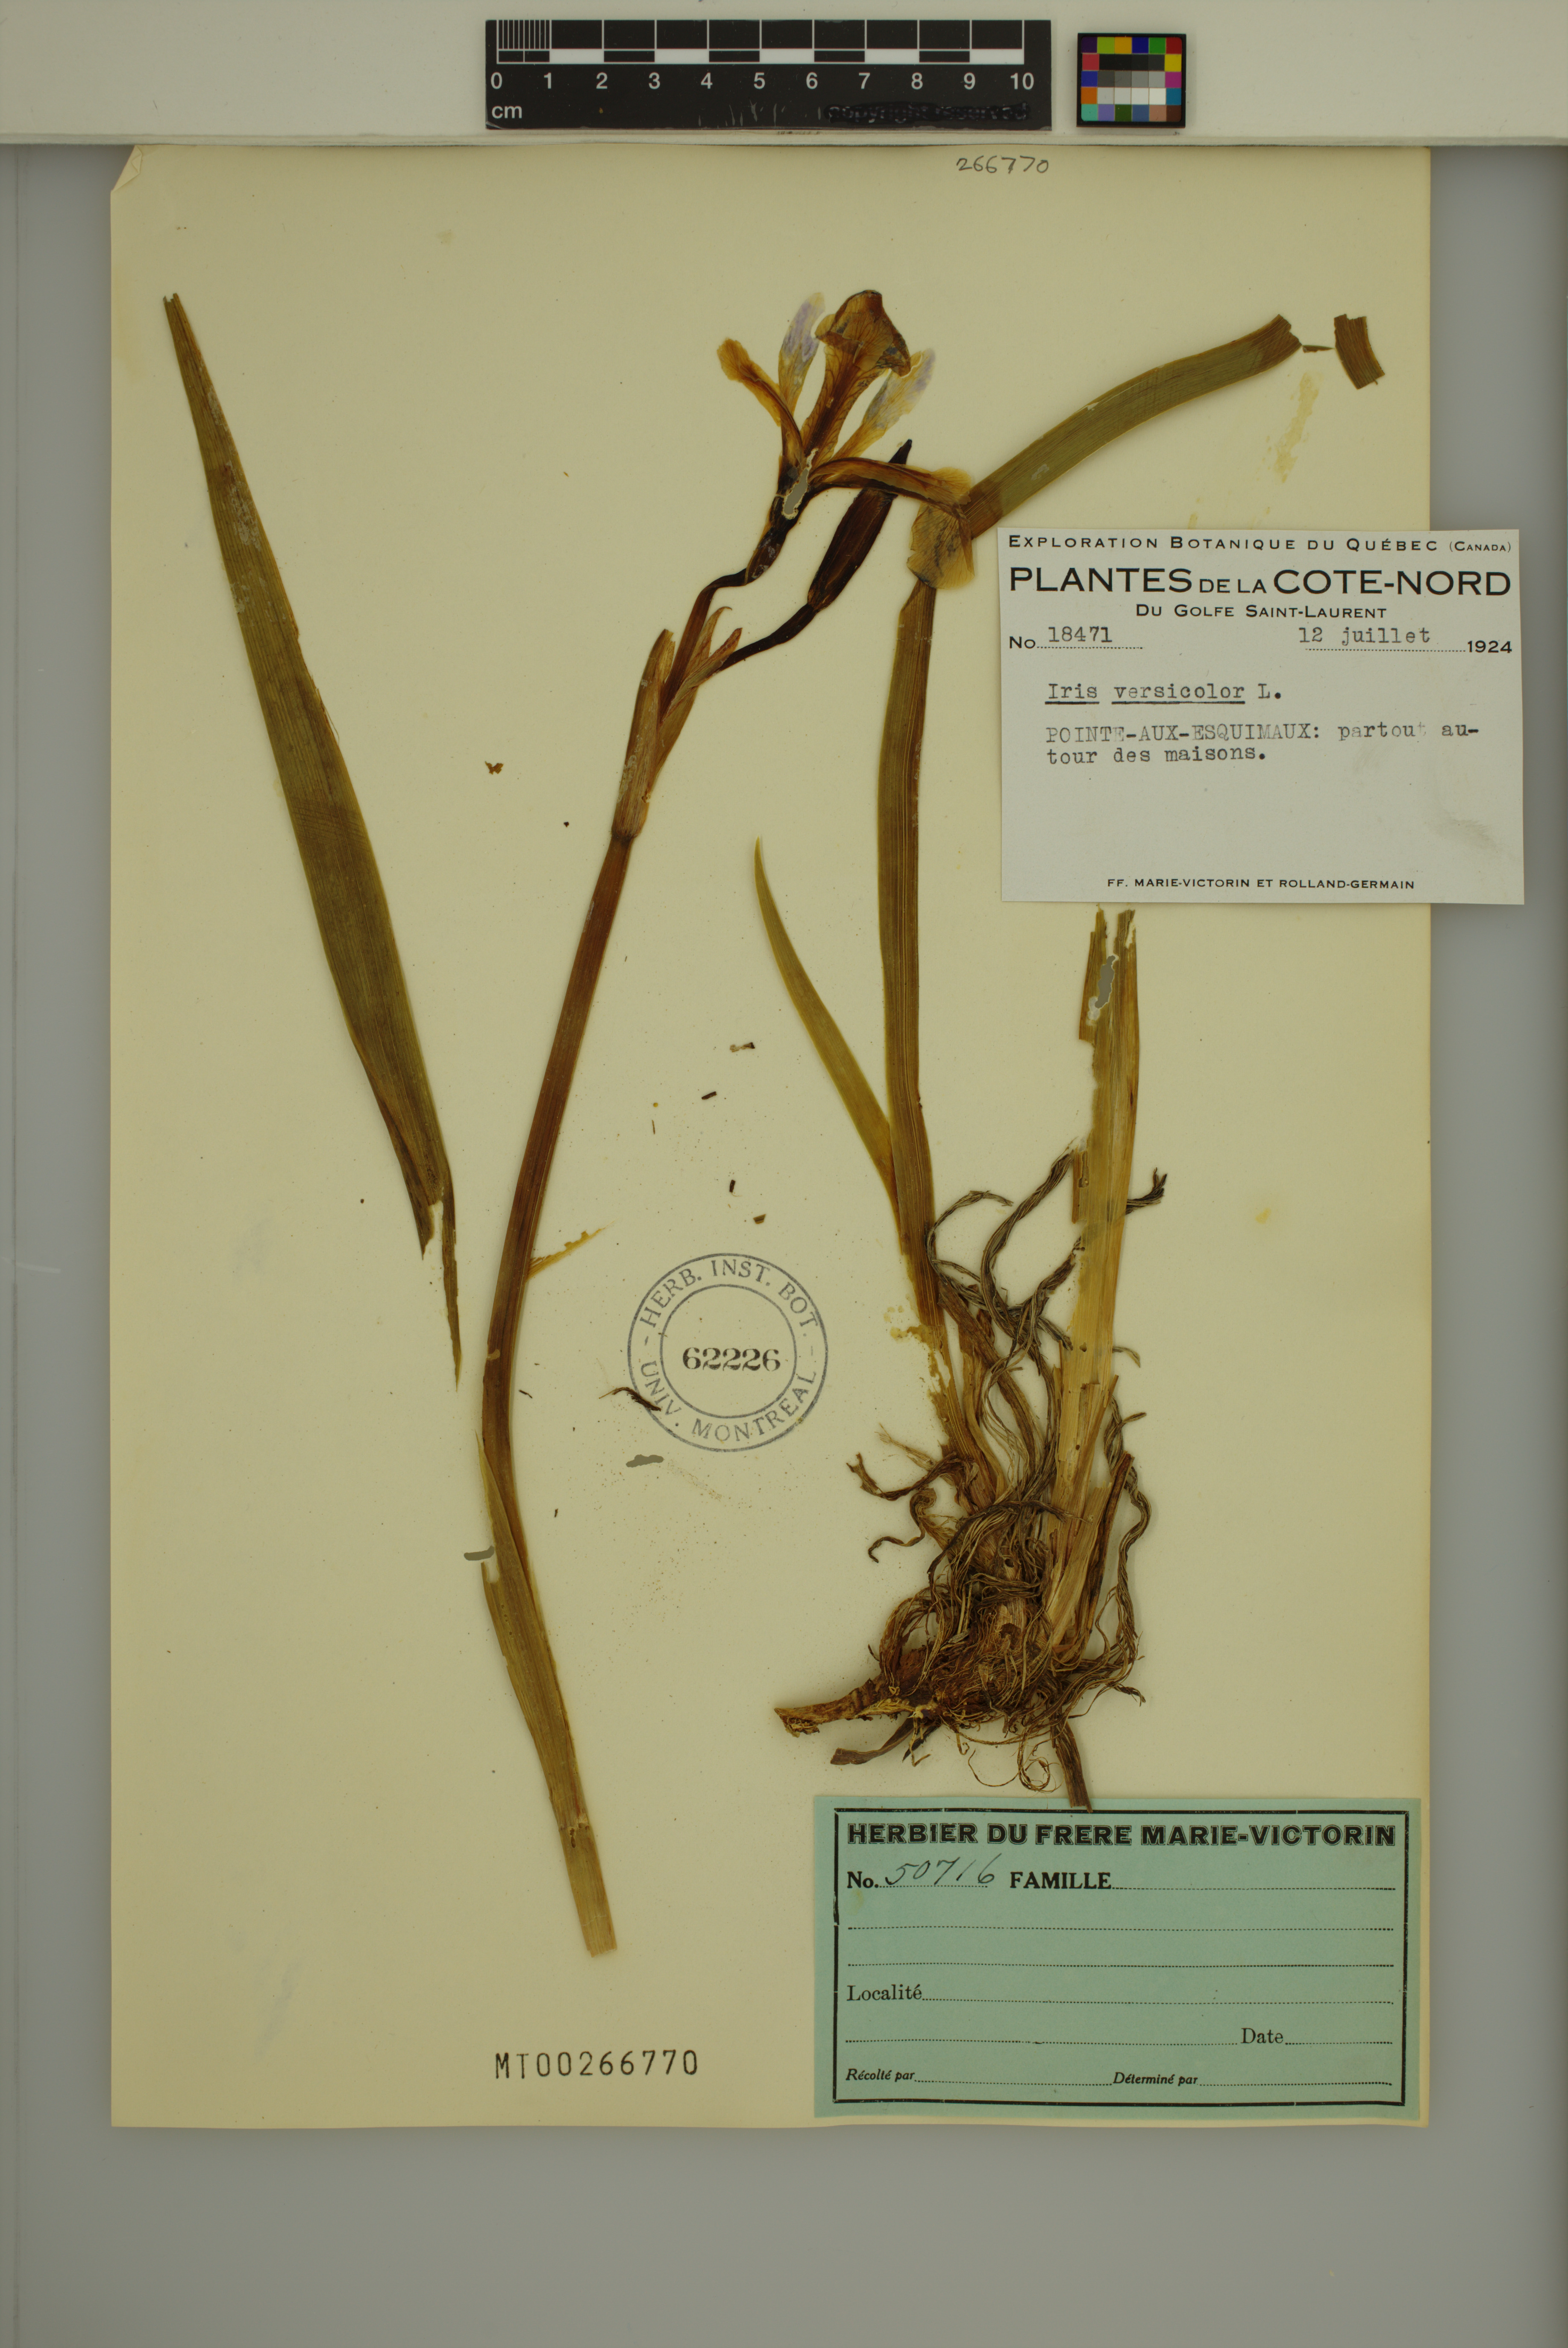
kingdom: Plantae
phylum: Tracheophyta
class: Liliopsida
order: Asparagales
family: Iridaceae
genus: Iris
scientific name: Iris versicolor
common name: Purple iris
